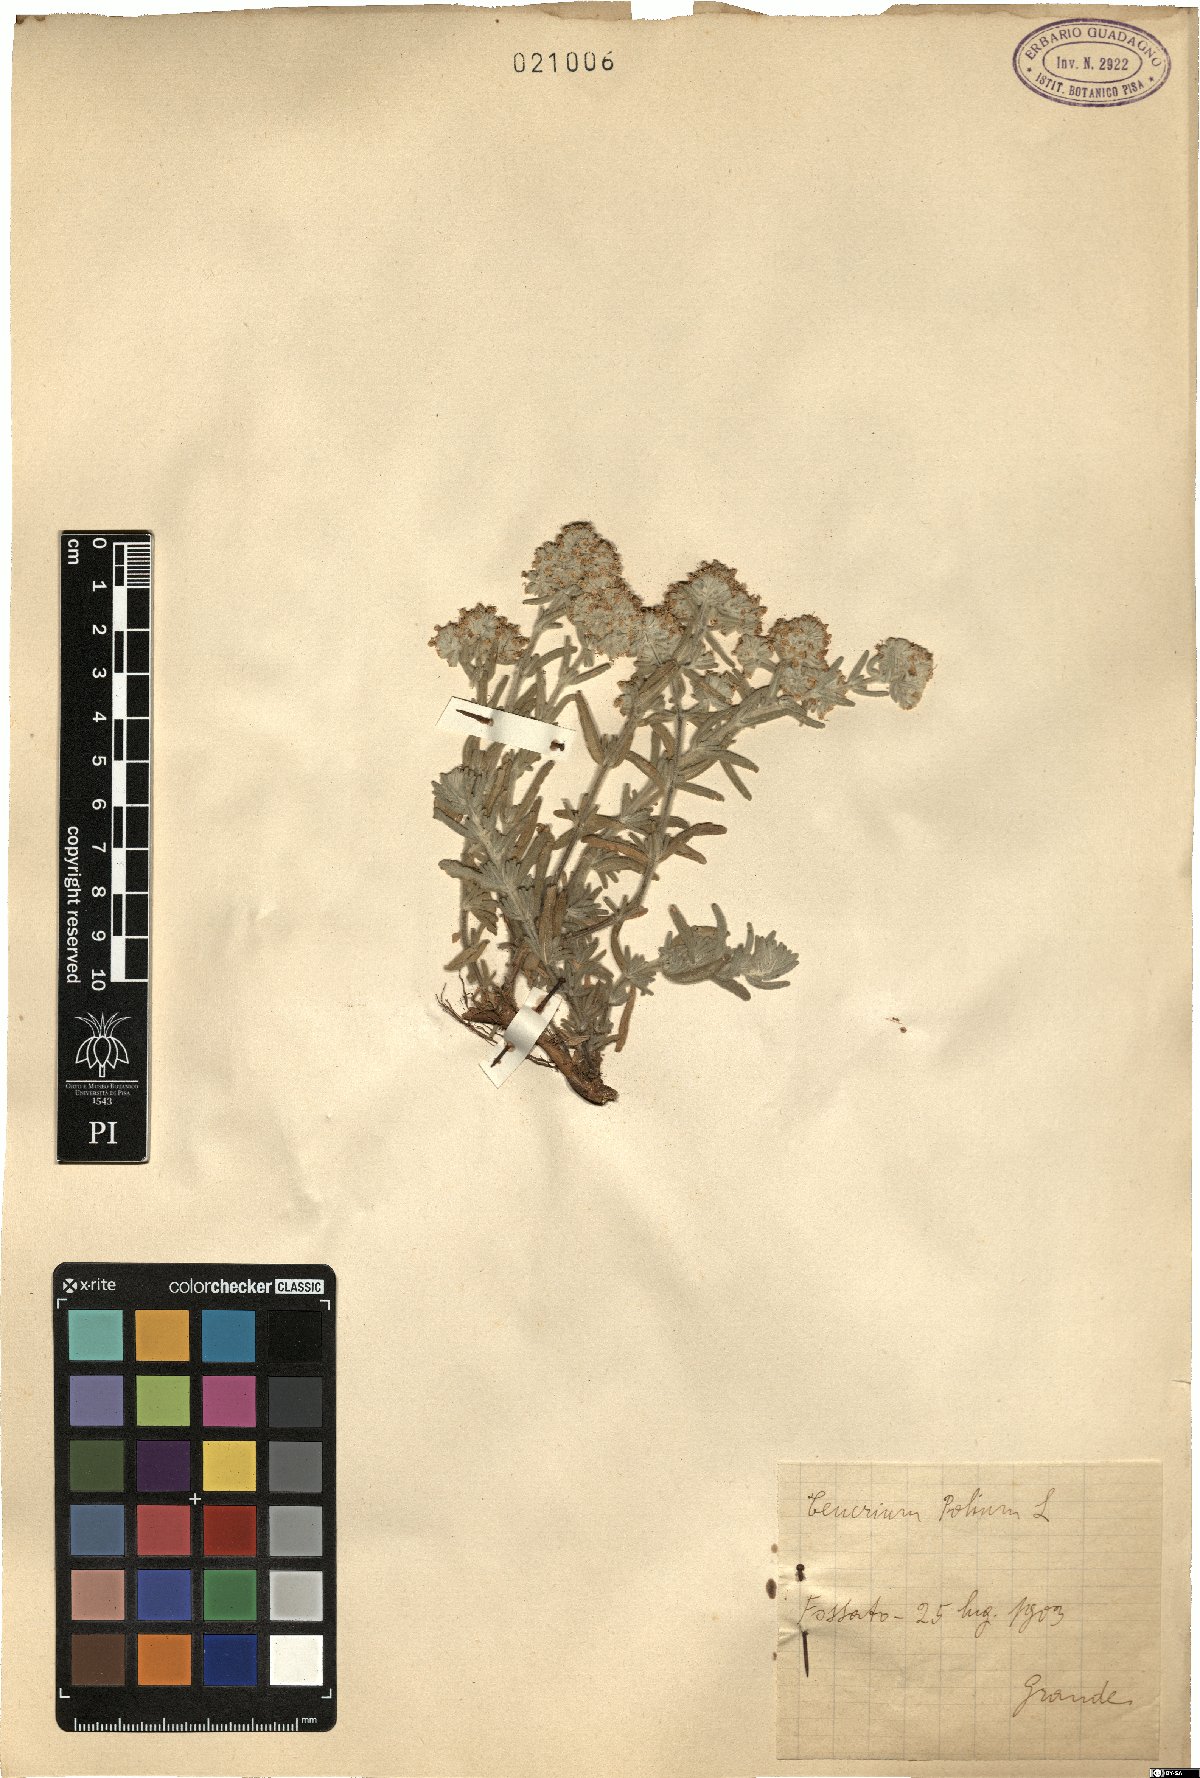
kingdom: Plantae
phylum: Tracheophyta
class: Magnoliopsida
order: Lamiales
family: Lamiaceae
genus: Teucrium
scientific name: Teucrium polium
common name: Poley
